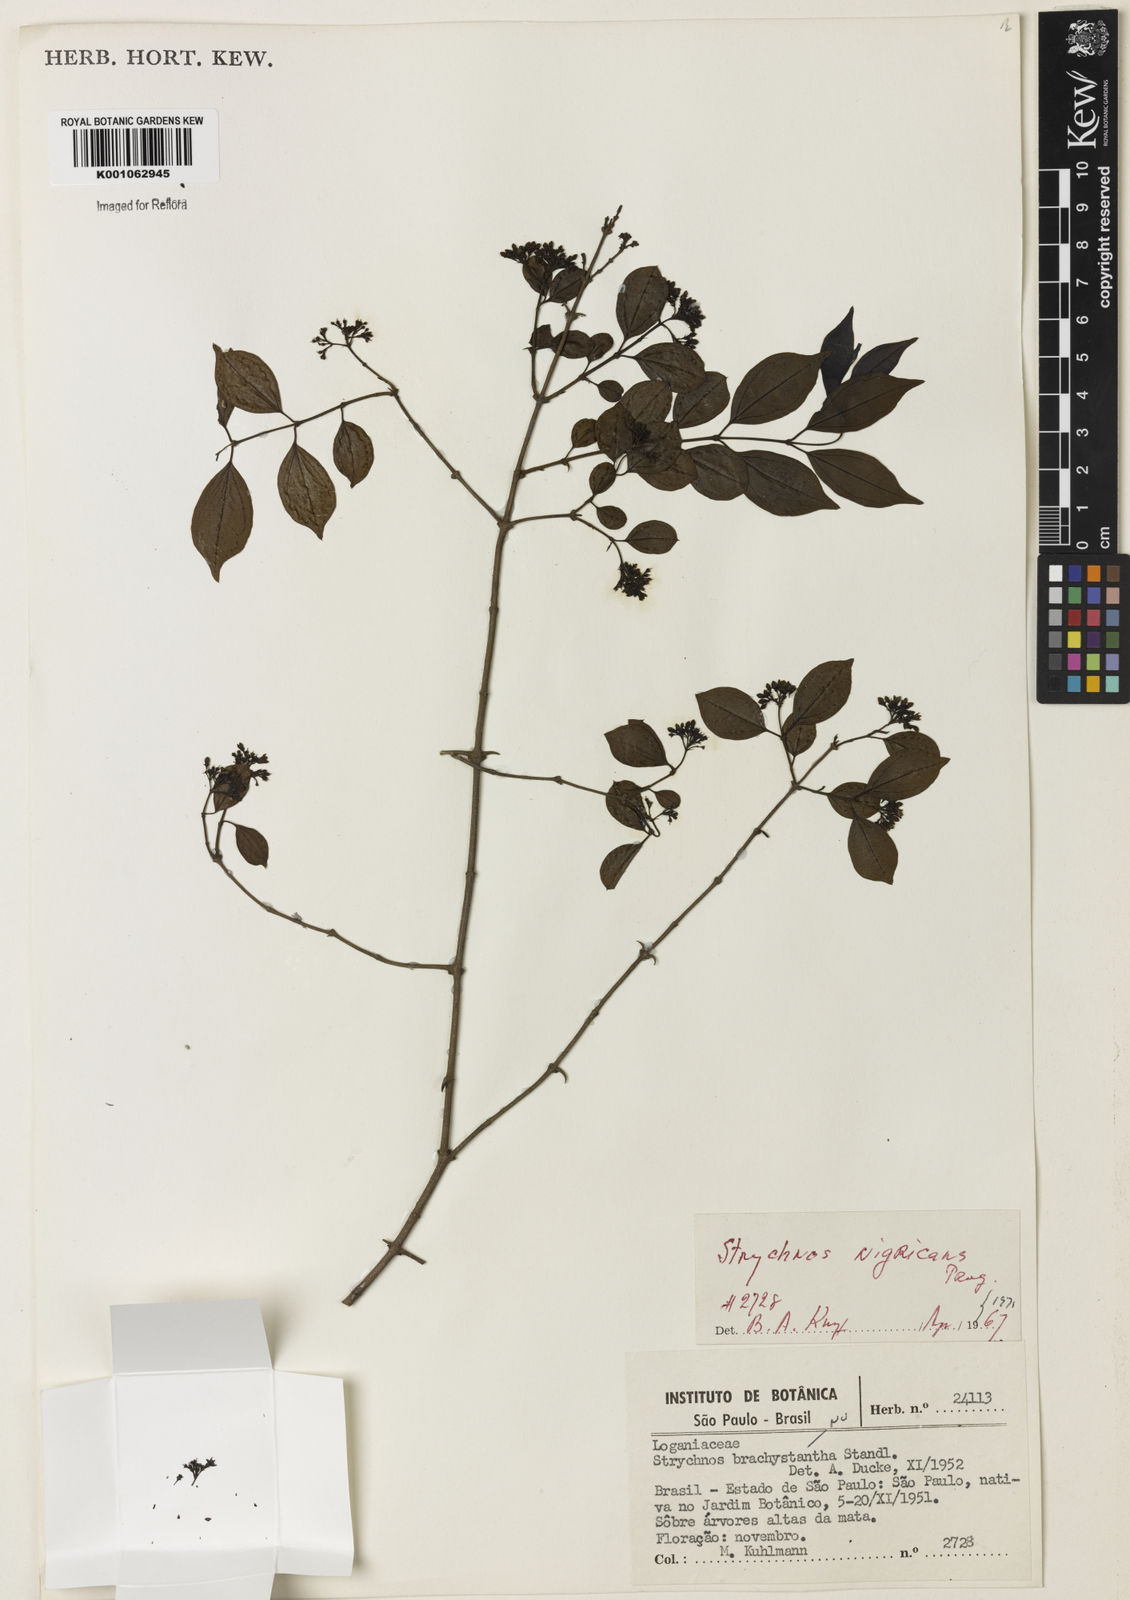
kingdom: Plantae
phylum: Tracheophyta
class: Magnoliopsida
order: Gentianales
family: Loganiaceae
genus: Strychnos
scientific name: Strychnos nigricans
